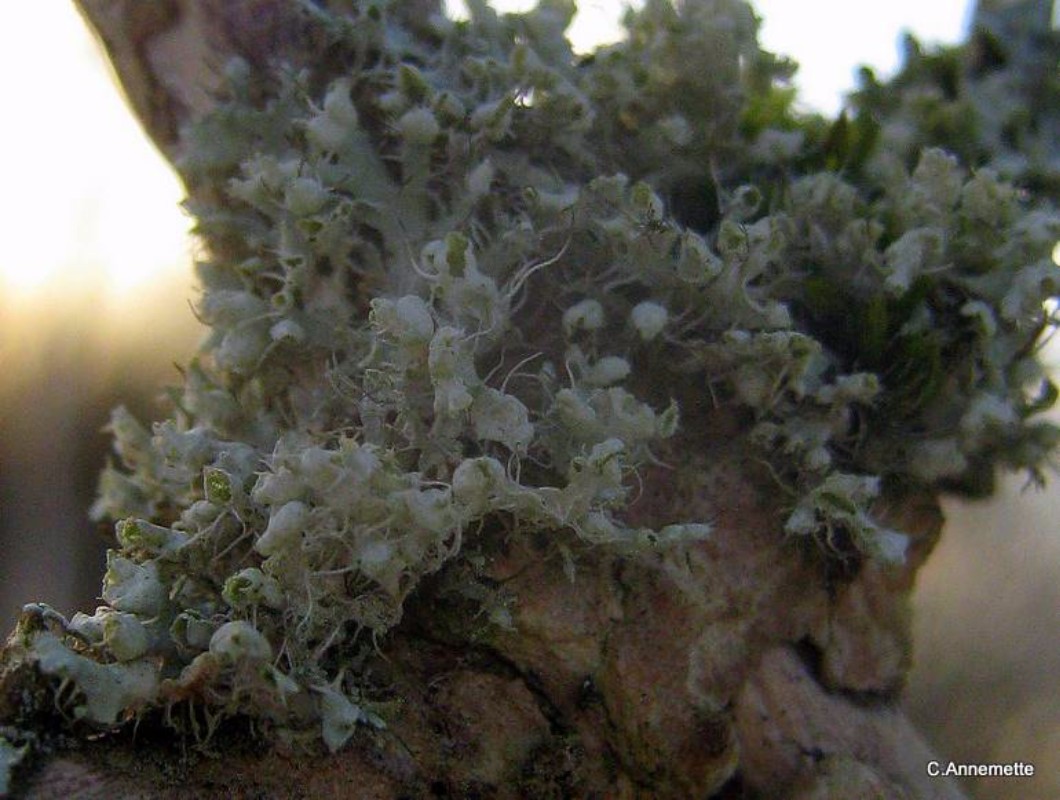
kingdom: Fungi
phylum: Ascomycota
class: Lecanoromycetes
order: Caliciales
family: Physciaceae
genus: Physcia
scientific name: Physcia adscendens
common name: hætte-rosetlav
